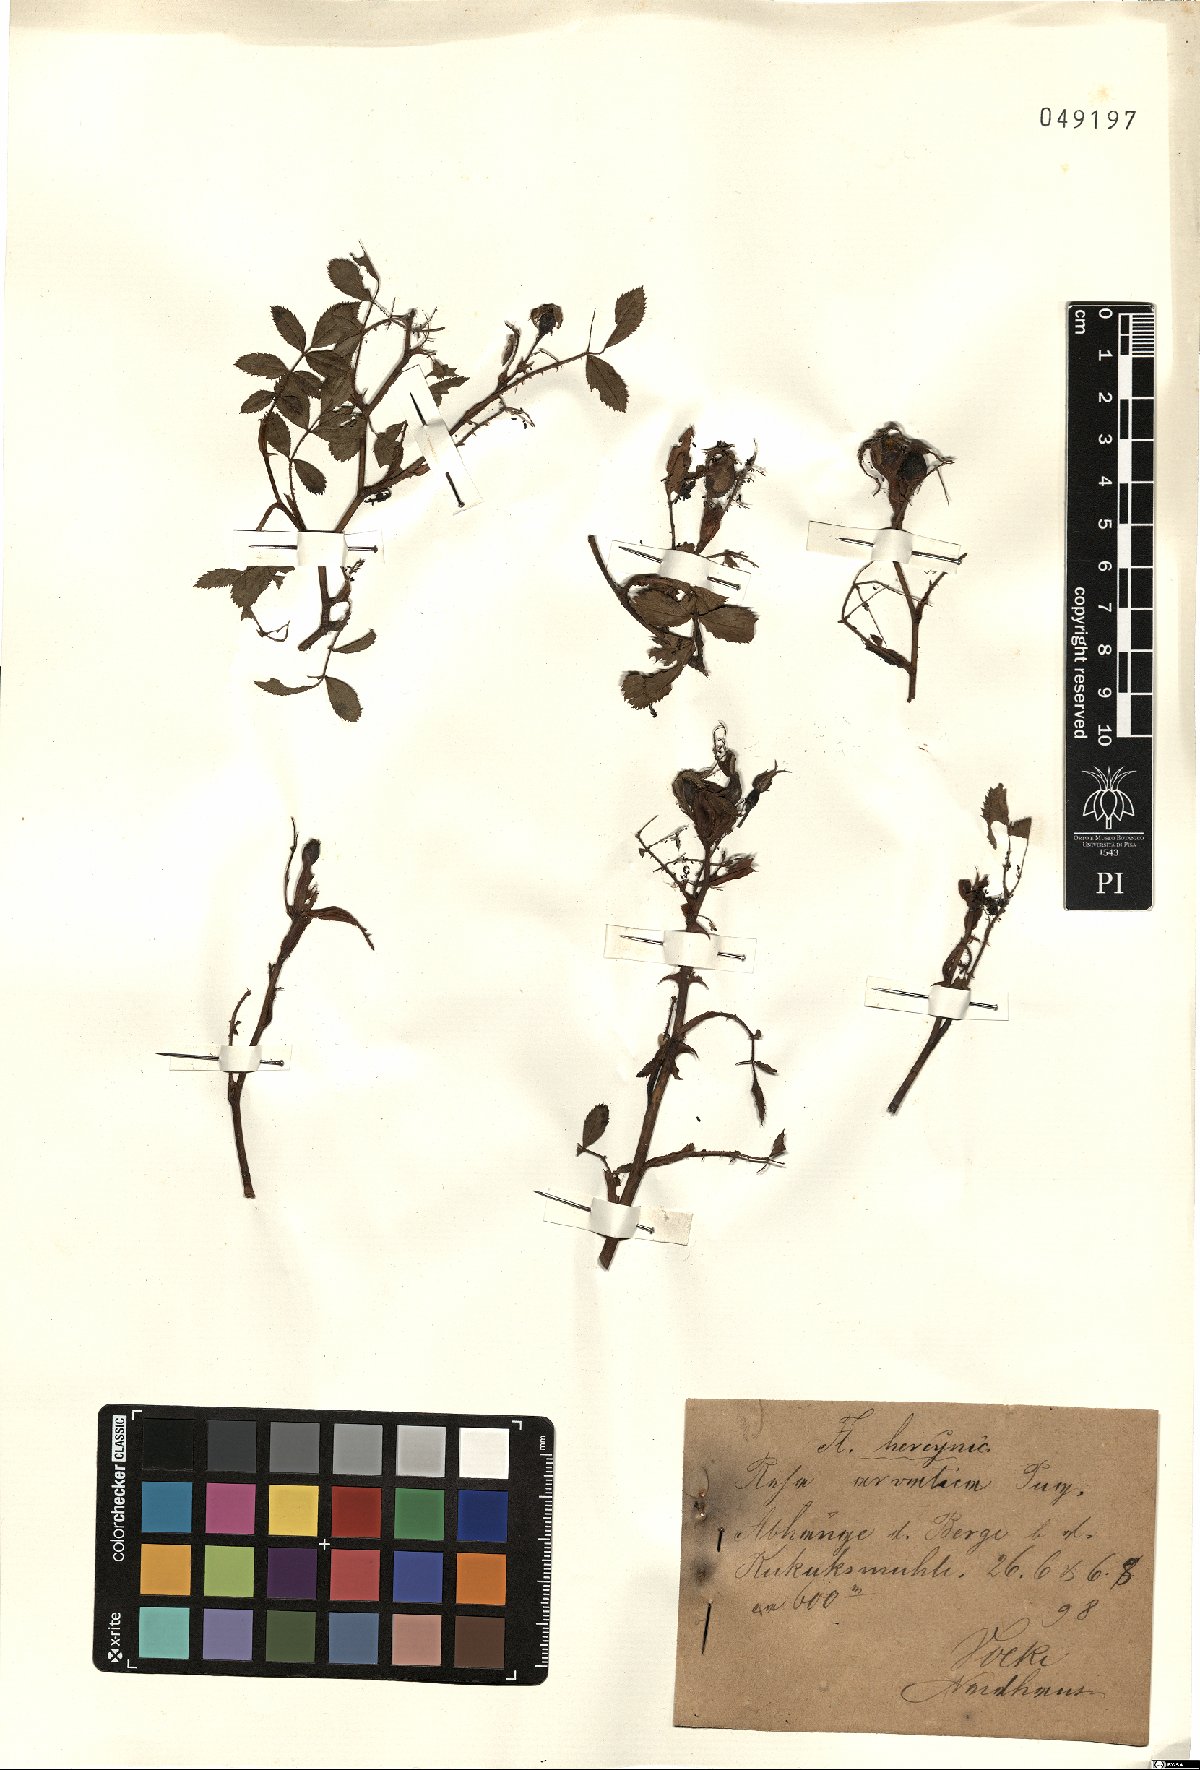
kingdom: Plantae
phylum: Tracheophyta
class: Magnoliopsida
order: Rosales
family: Rosaceae
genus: Rosa
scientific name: Rosa
